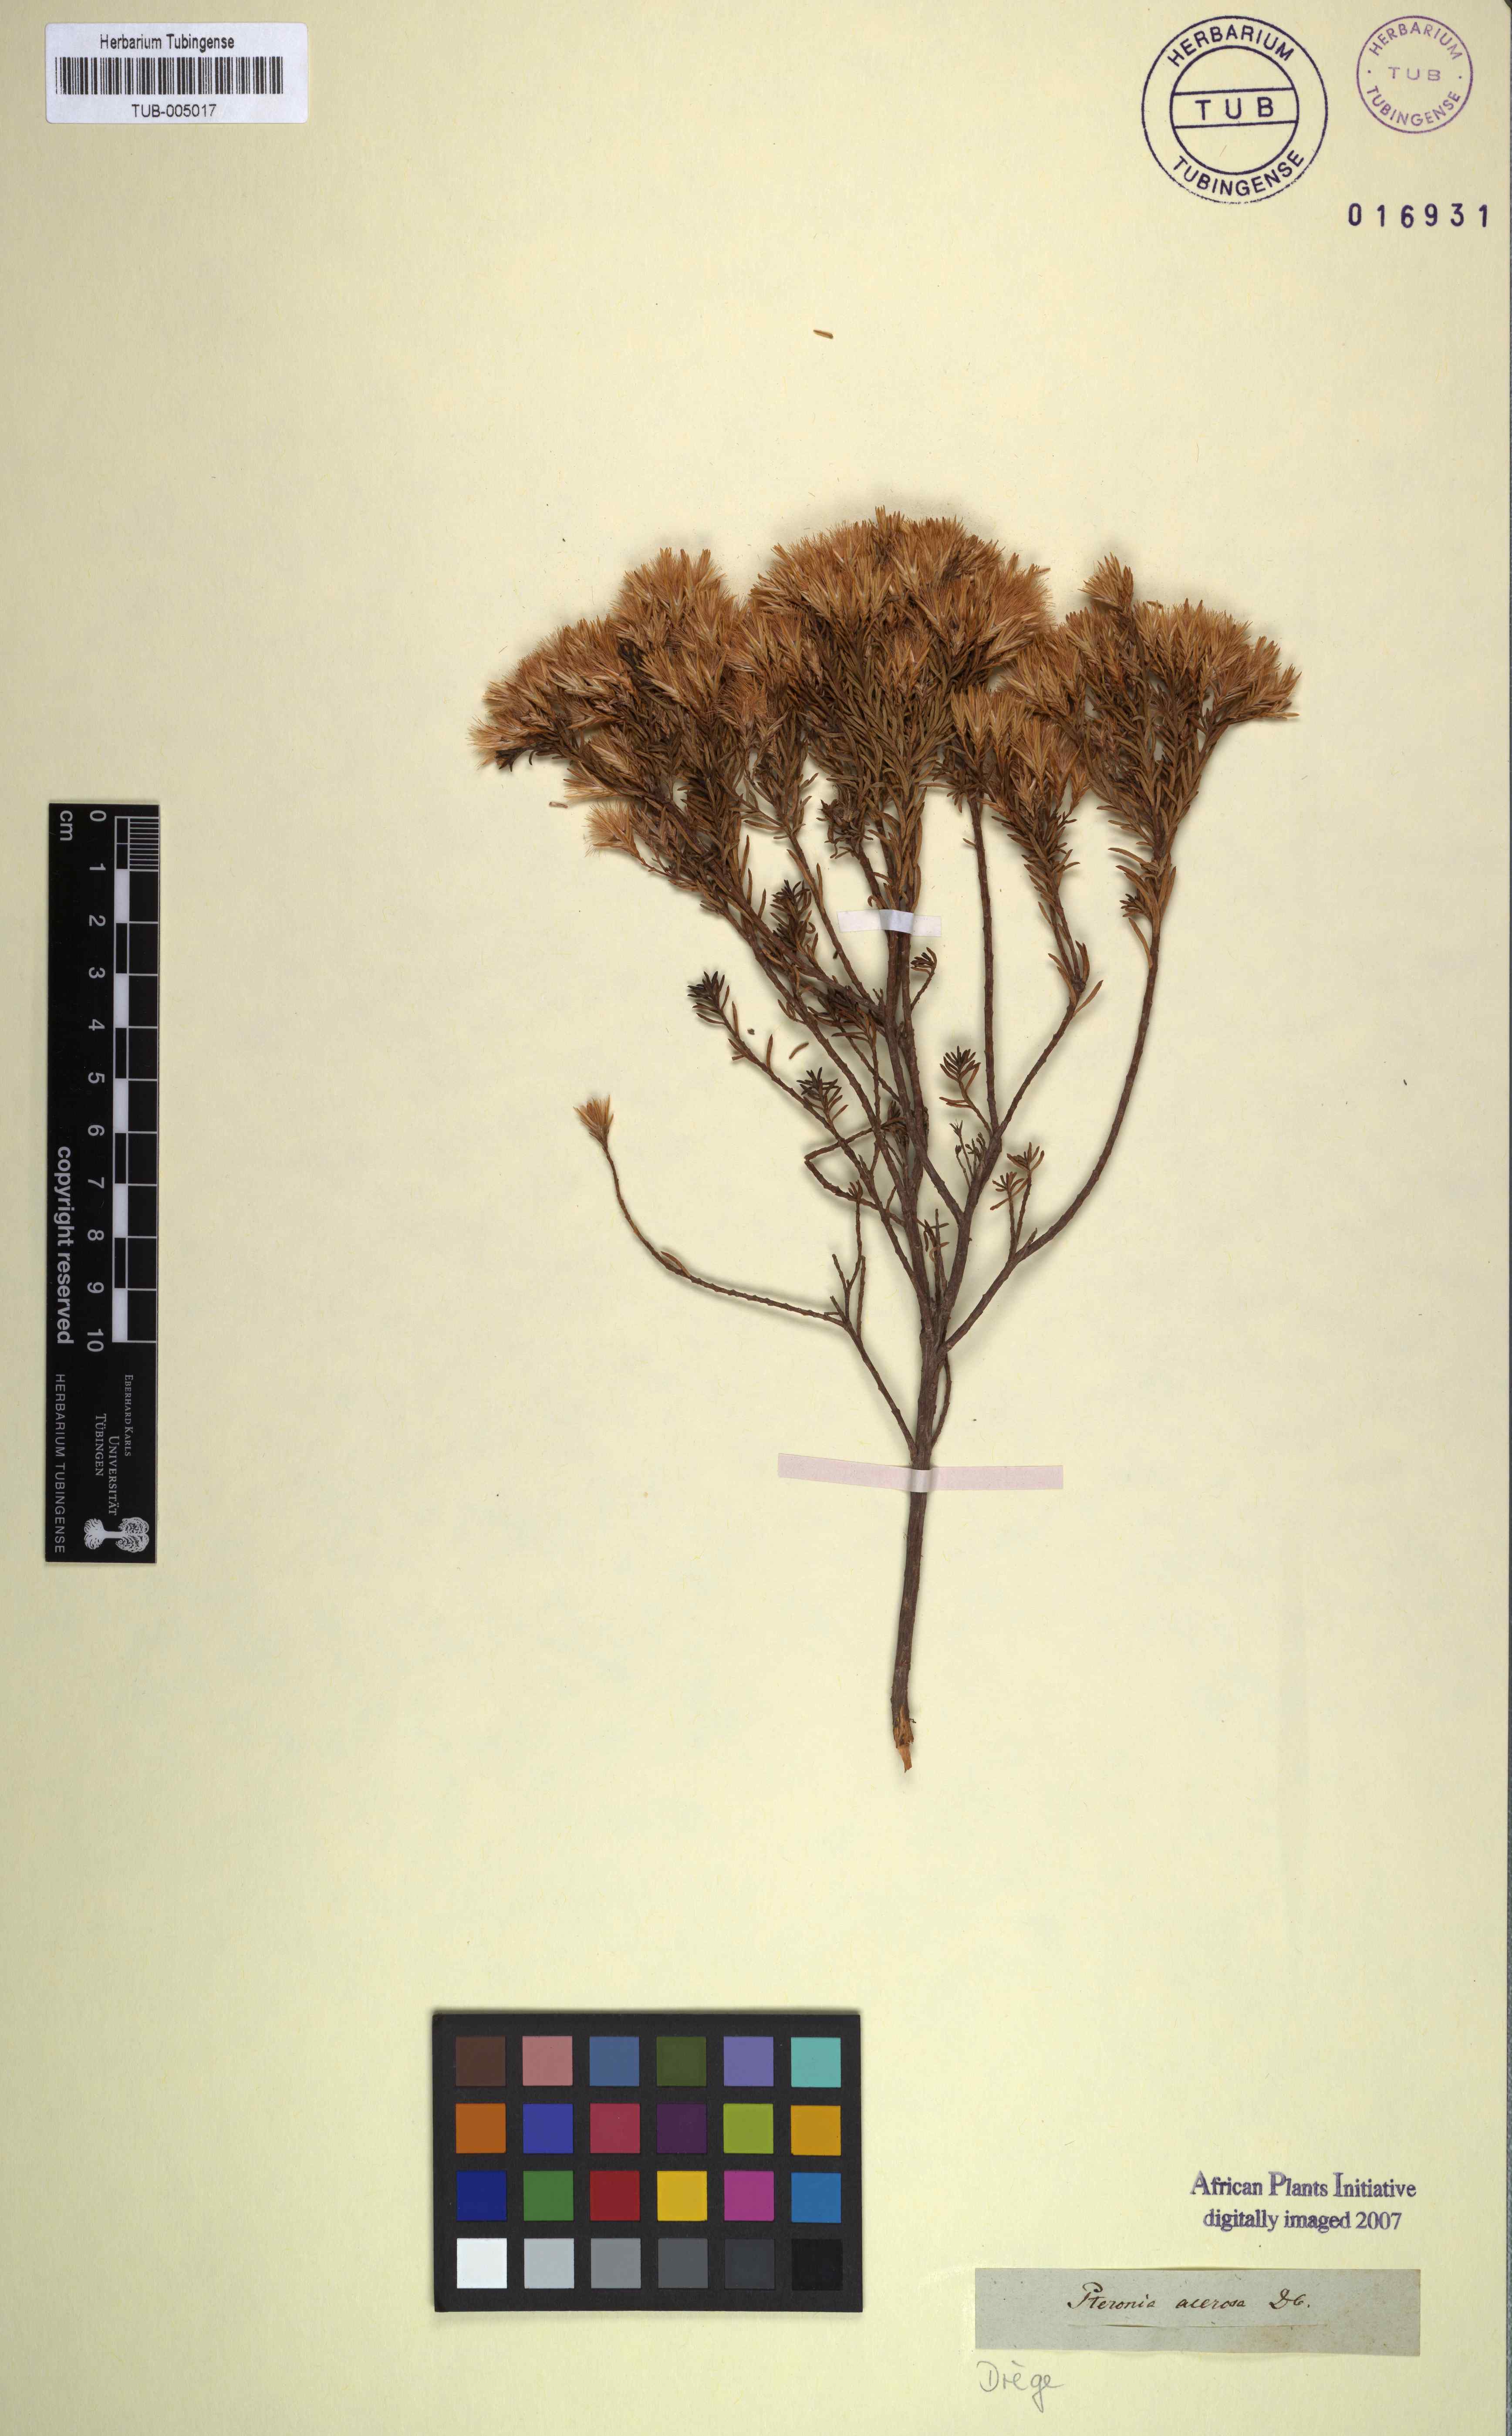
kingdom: Plantae
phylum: Tracheophyta
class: Magnoliopsida
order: Asterales
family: Asteraceae
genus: Pteronia
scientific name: Pteronia teretifolia
